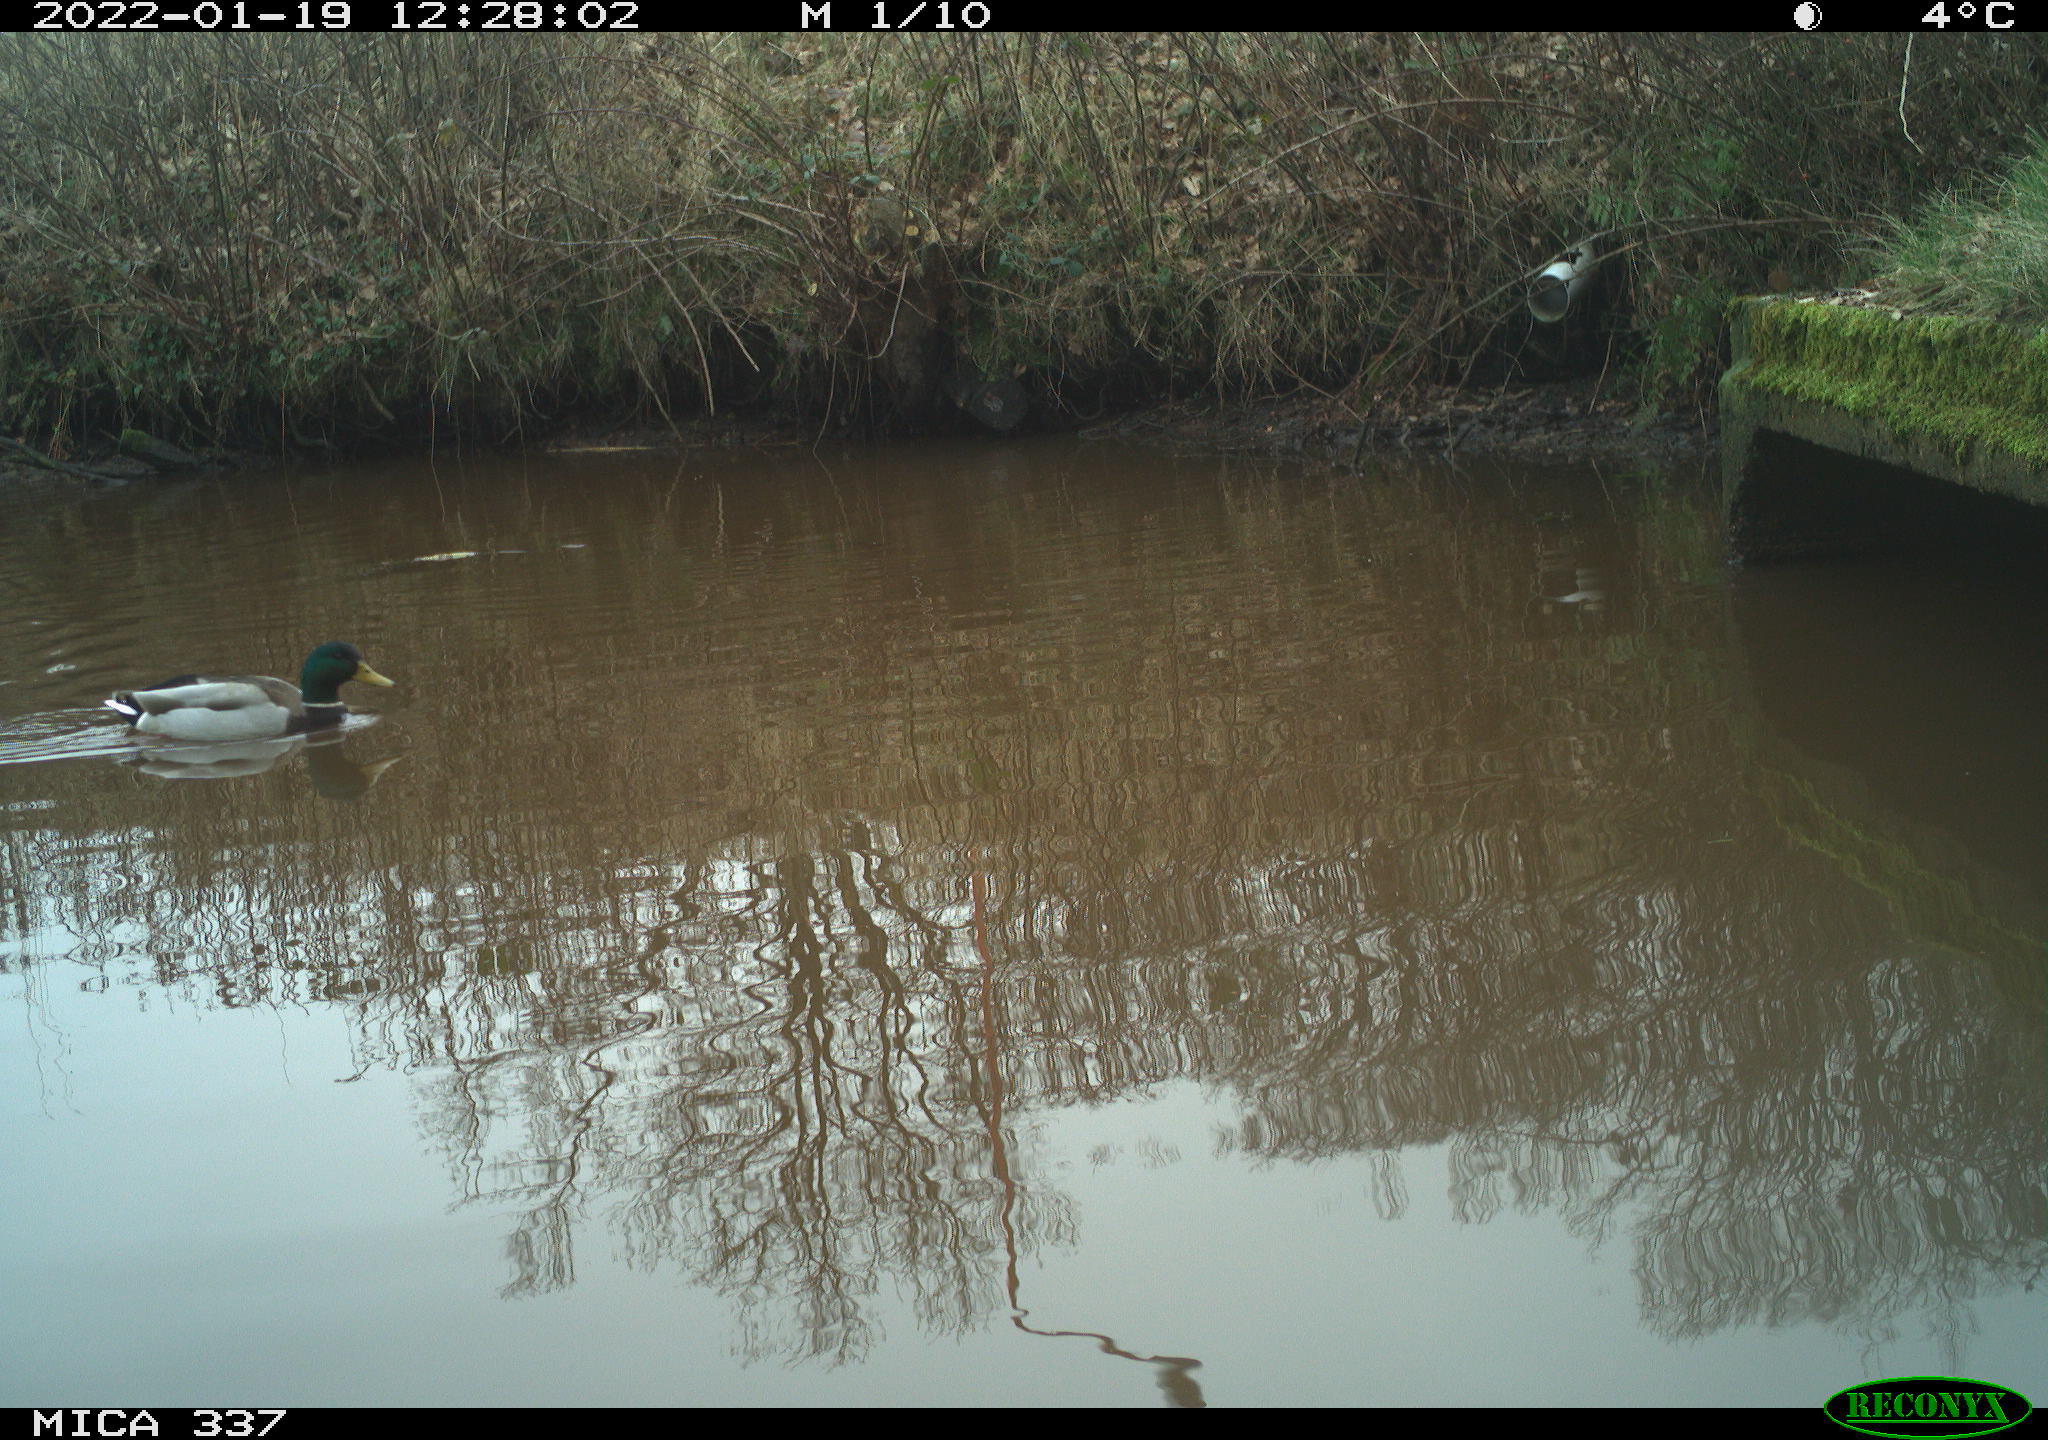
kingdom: Animalia
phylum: Chordata
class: Aves
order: Anseriformes
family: Anatidae
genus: Anas
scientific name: Anas platyrhynchos
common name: Mallard
